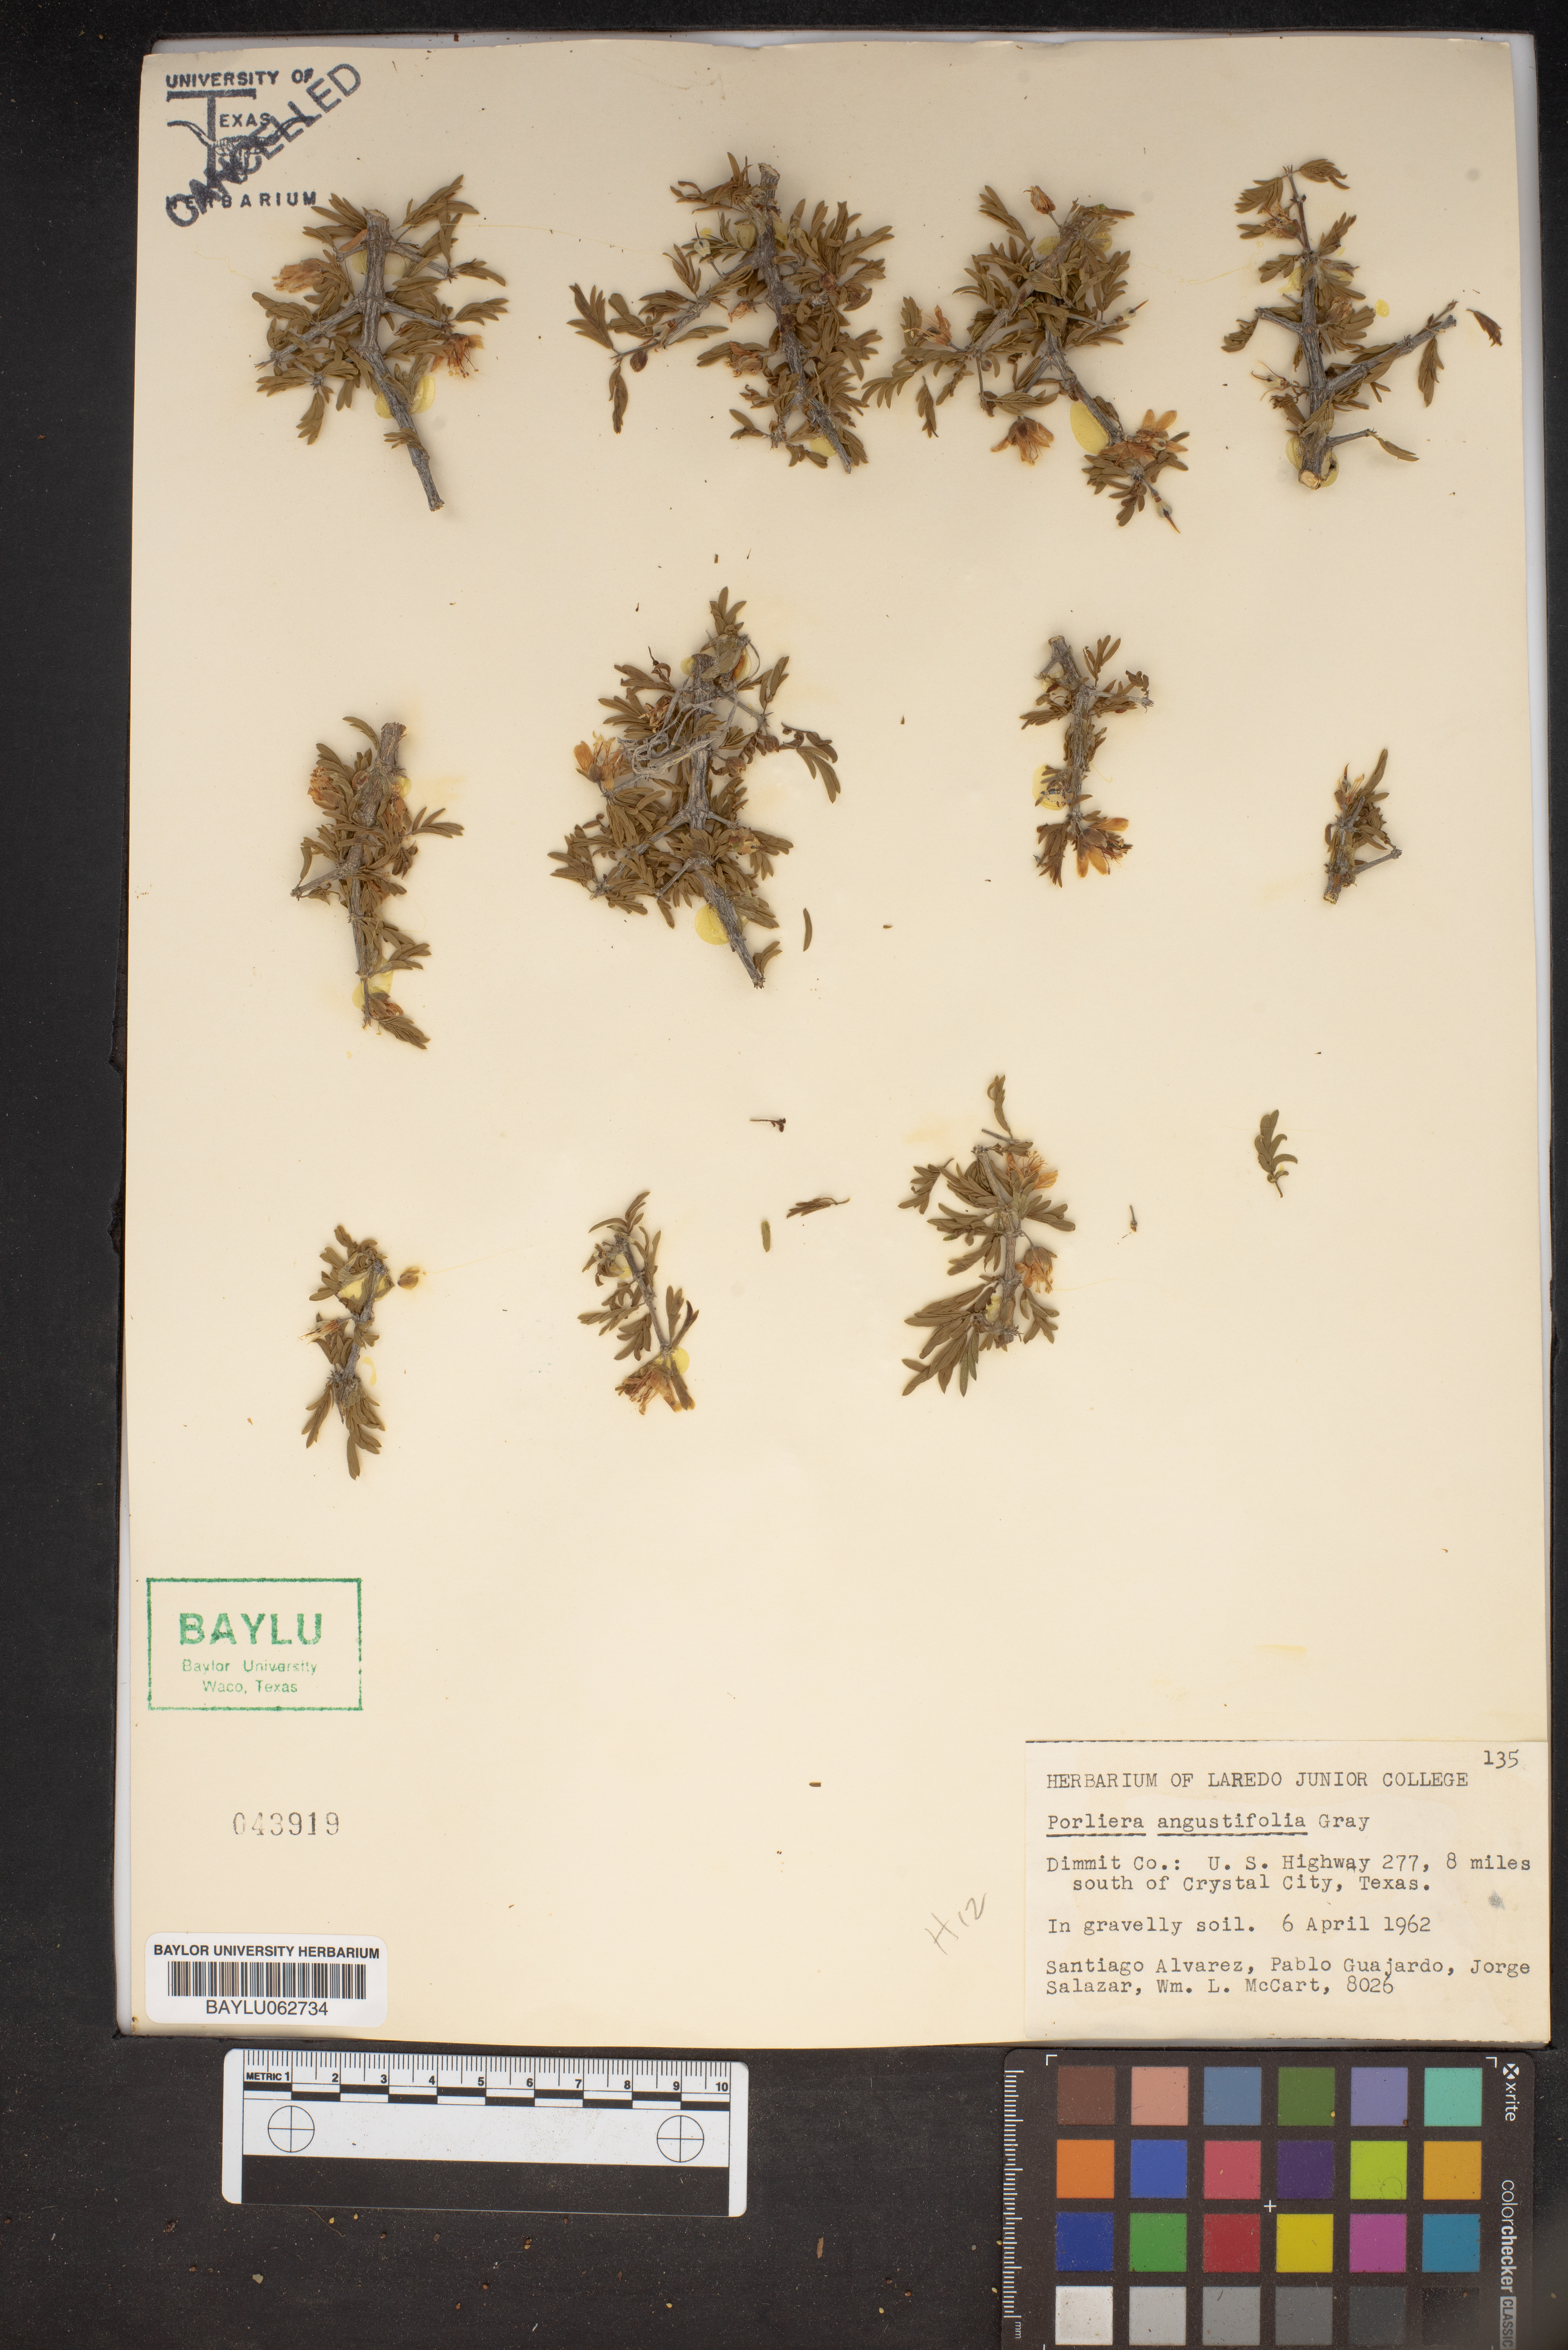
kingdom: Plantae
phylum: Tracheophyta
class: Magnoliopsida
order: Zygophyllales
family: Zygophyllaceae
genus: Porlieria
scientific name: Porlieria angustifolia
